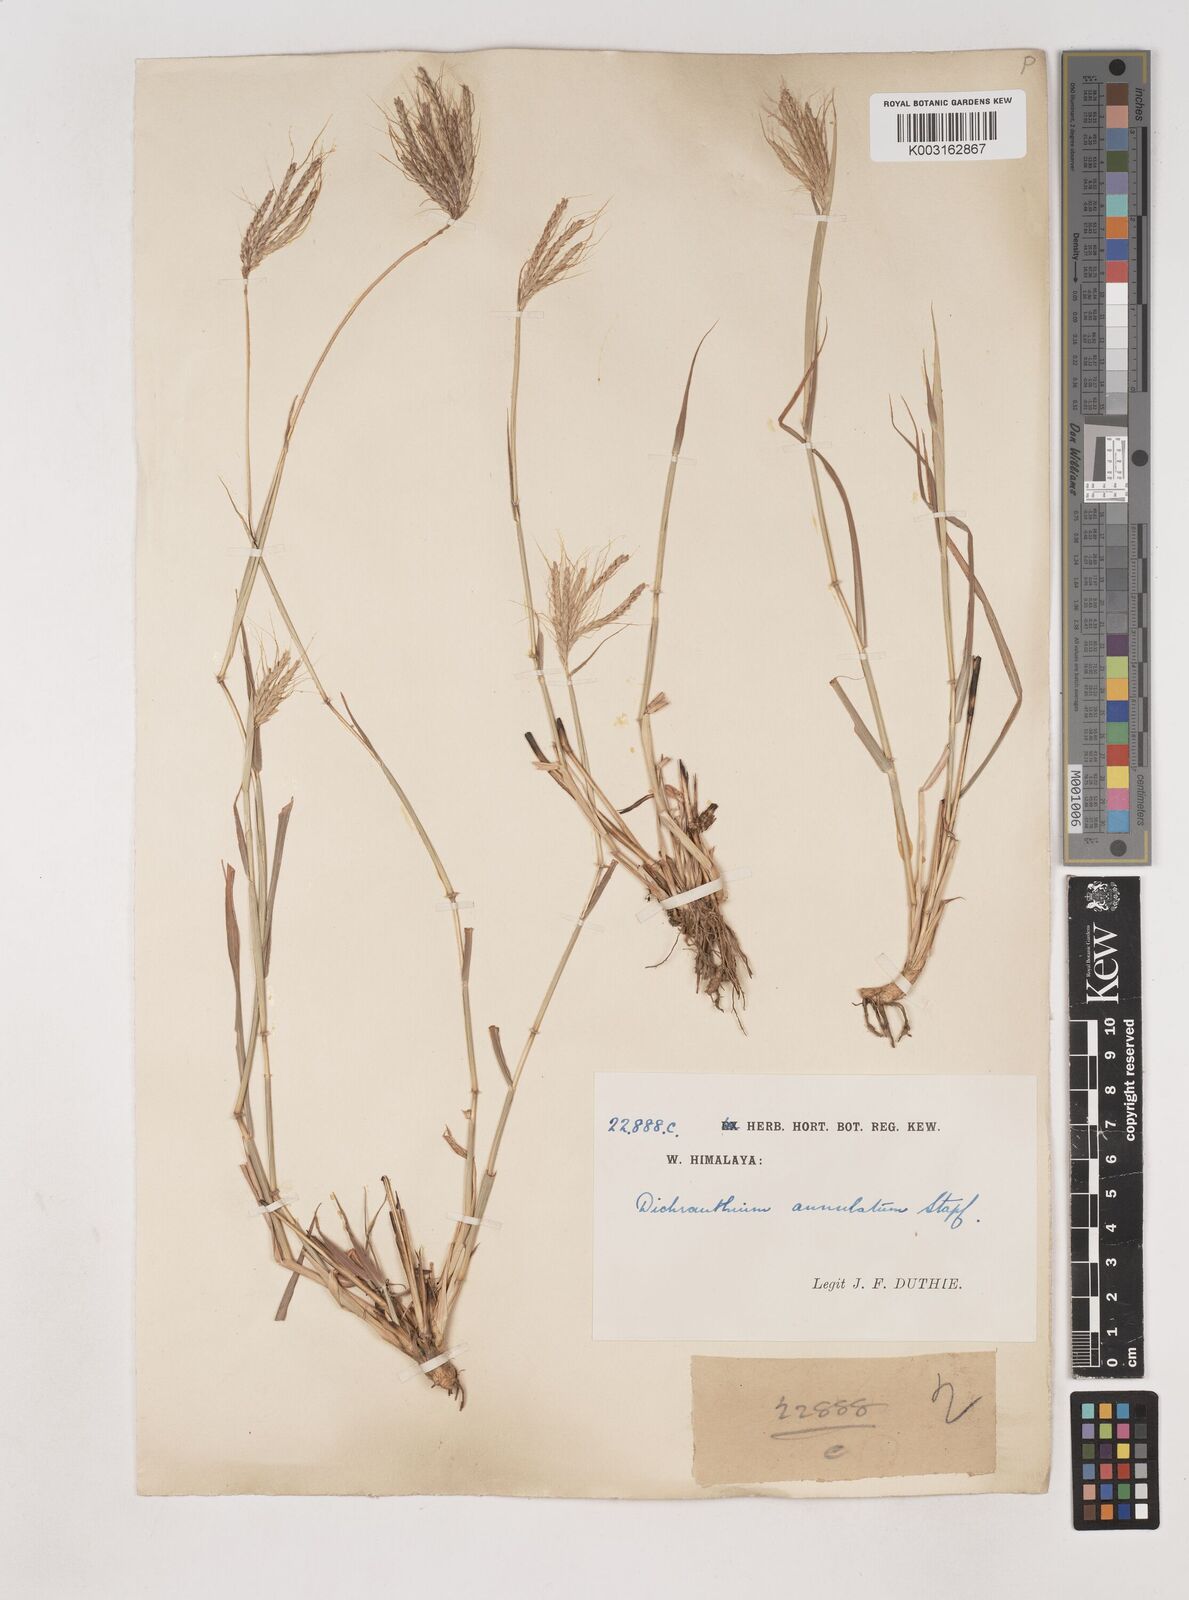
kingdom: Plantae
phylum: Tracheophyta
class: Liliopsida
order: Poales
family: Poaceae
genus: Dichanthium
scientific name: Dichanthium annulatum
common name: Kleberg's bluestem
